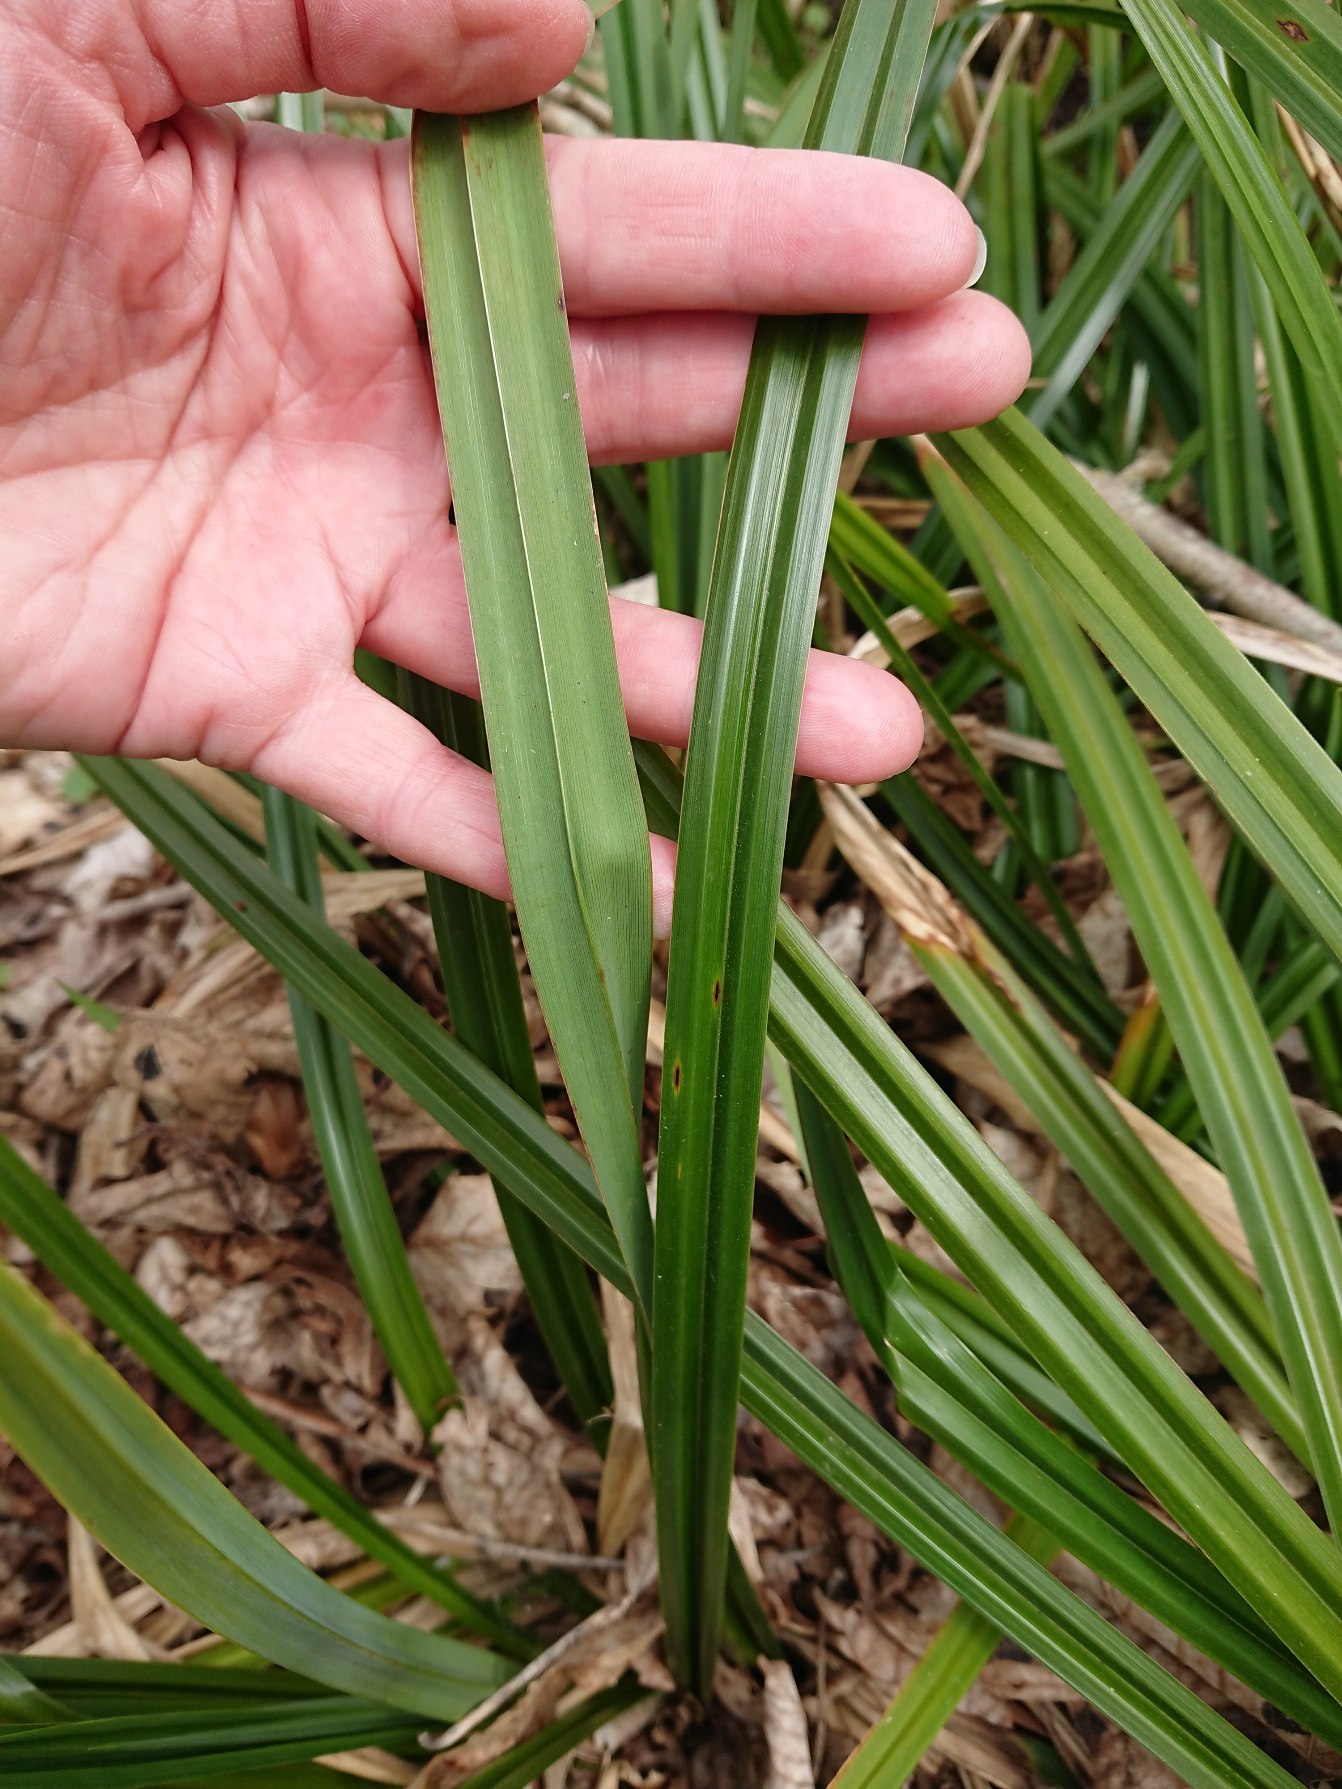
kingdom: Plantae
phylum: Tracheophyta
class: Liliopsida
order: Poales
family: Cyperaceae
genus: Carex
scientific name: Carex pendula
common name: Kæmpe-star
